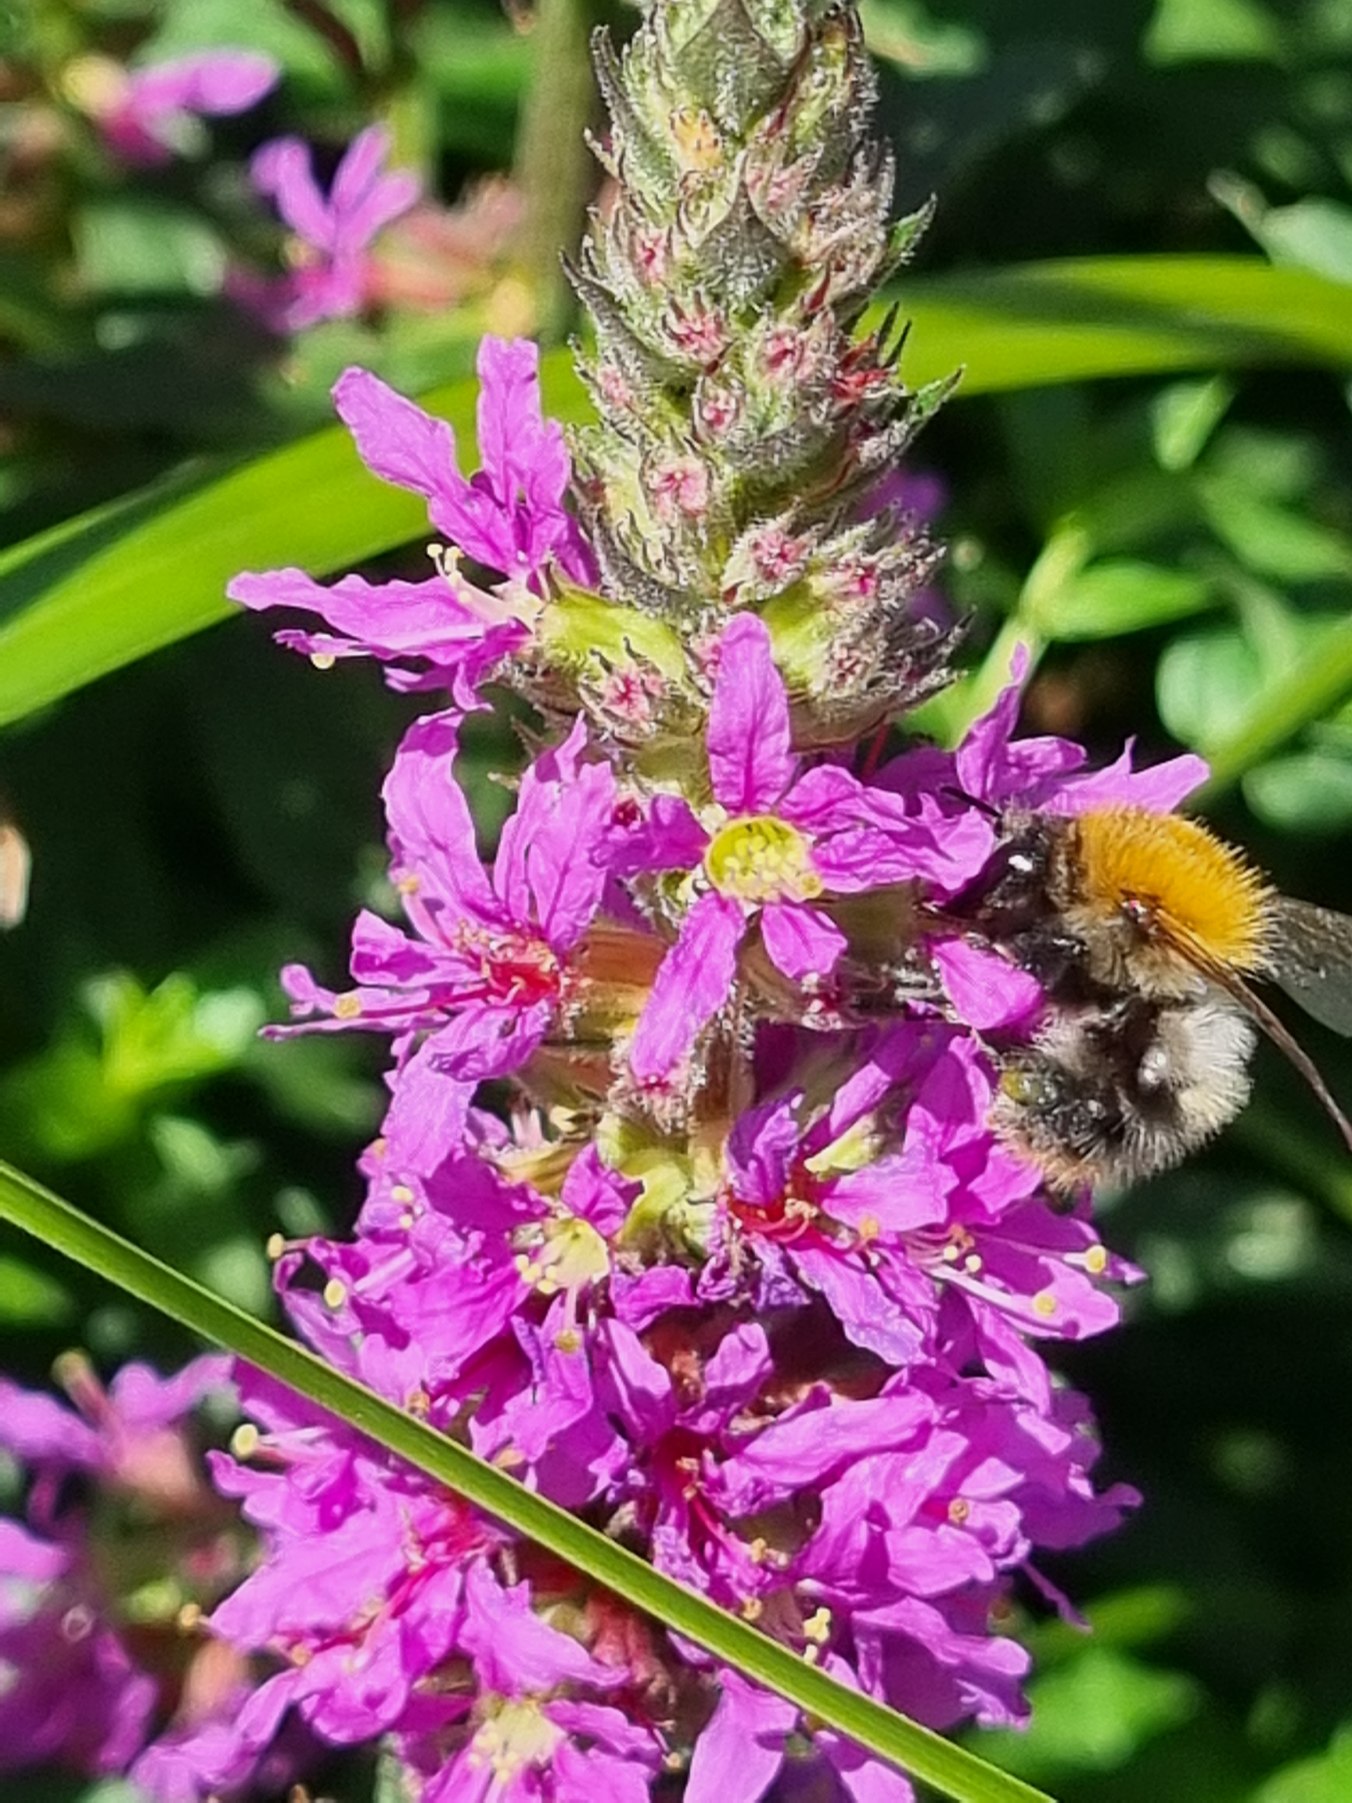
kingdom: Plantae
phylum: Tracheophyta
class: Magnoliopsida
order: Myrtales
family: Lythraceae
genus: Lythrum
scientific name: Lythrum salicaria
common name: Kattehale
